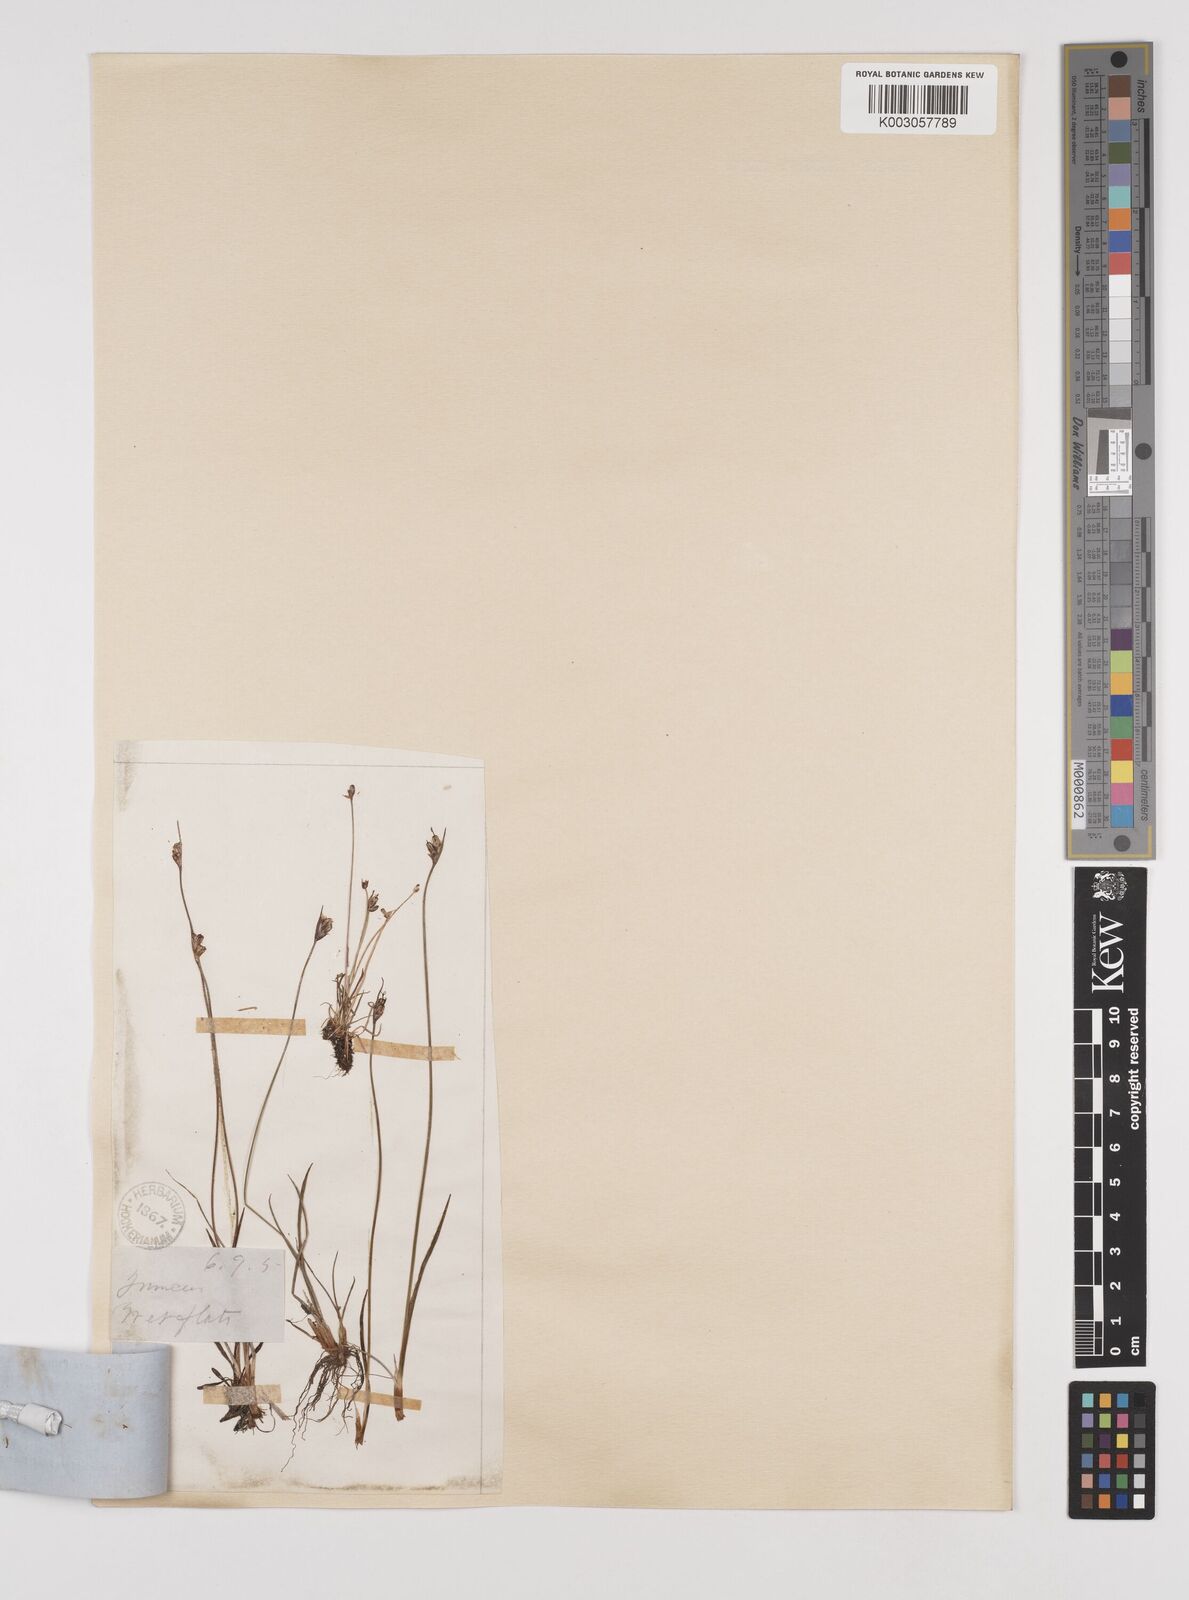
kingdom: Plantae
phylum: Tracheophyta
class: Liliopsida
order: Poales
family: Juncaceae
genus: Juncus
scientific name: Juncus biglumis
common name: Two-flowered rush
